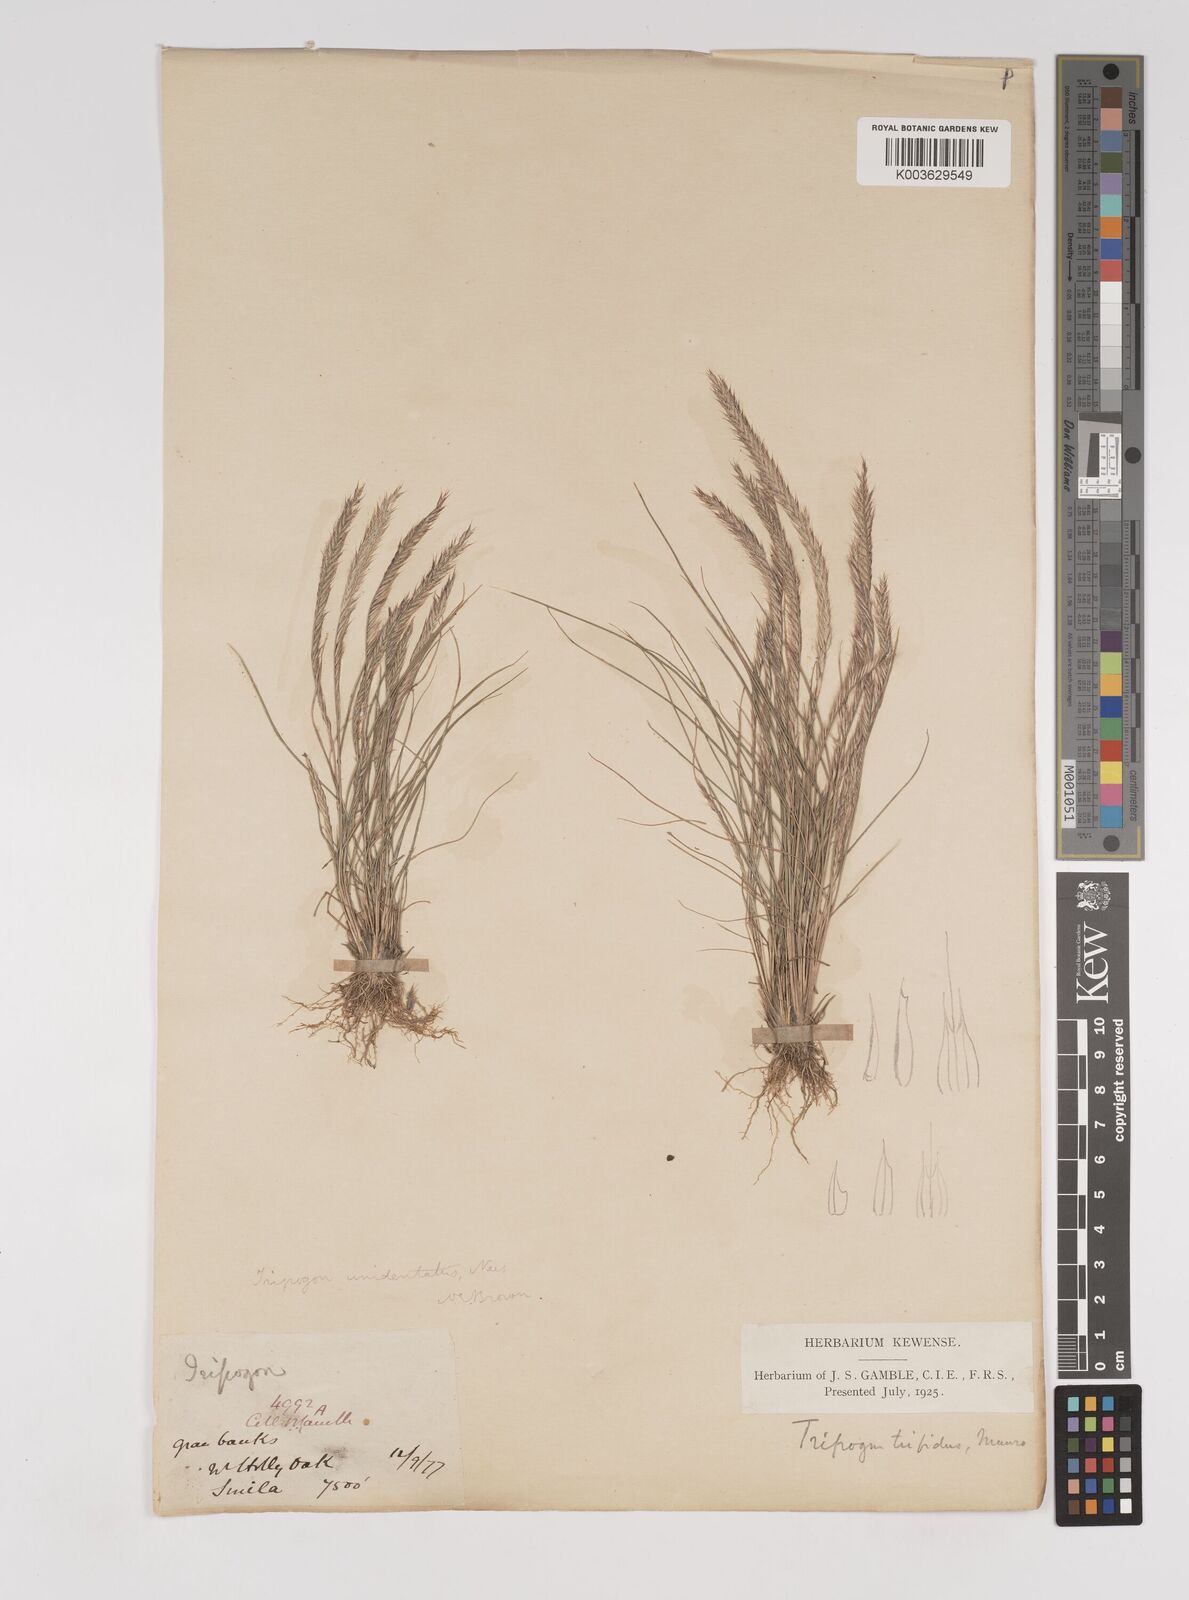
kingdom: Plantae
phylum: Tracheophyta
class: Liliopsida
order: Poales
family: Poaceae
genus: Tripogon
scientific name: Tripogon filiformis
